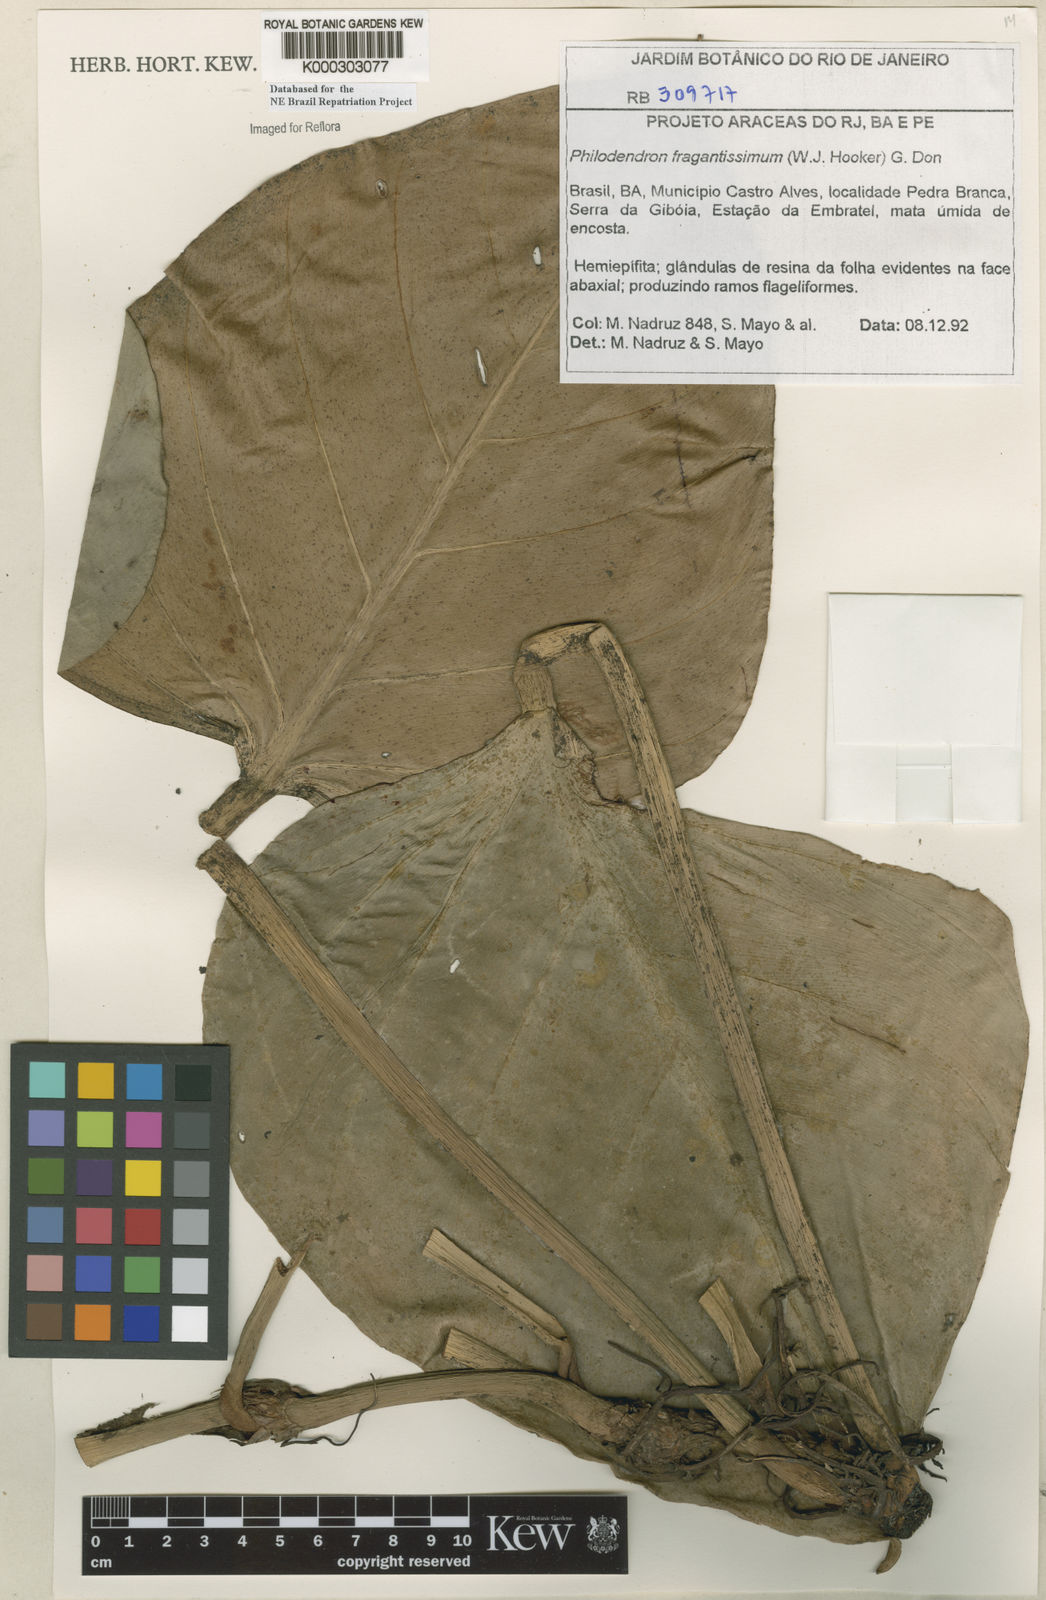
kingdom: Plantae
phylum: Tracheophyta
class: Liliopsida
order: Alismatales
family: Araceae
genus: Philodendron
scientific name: Philodendron fragrantissimum
